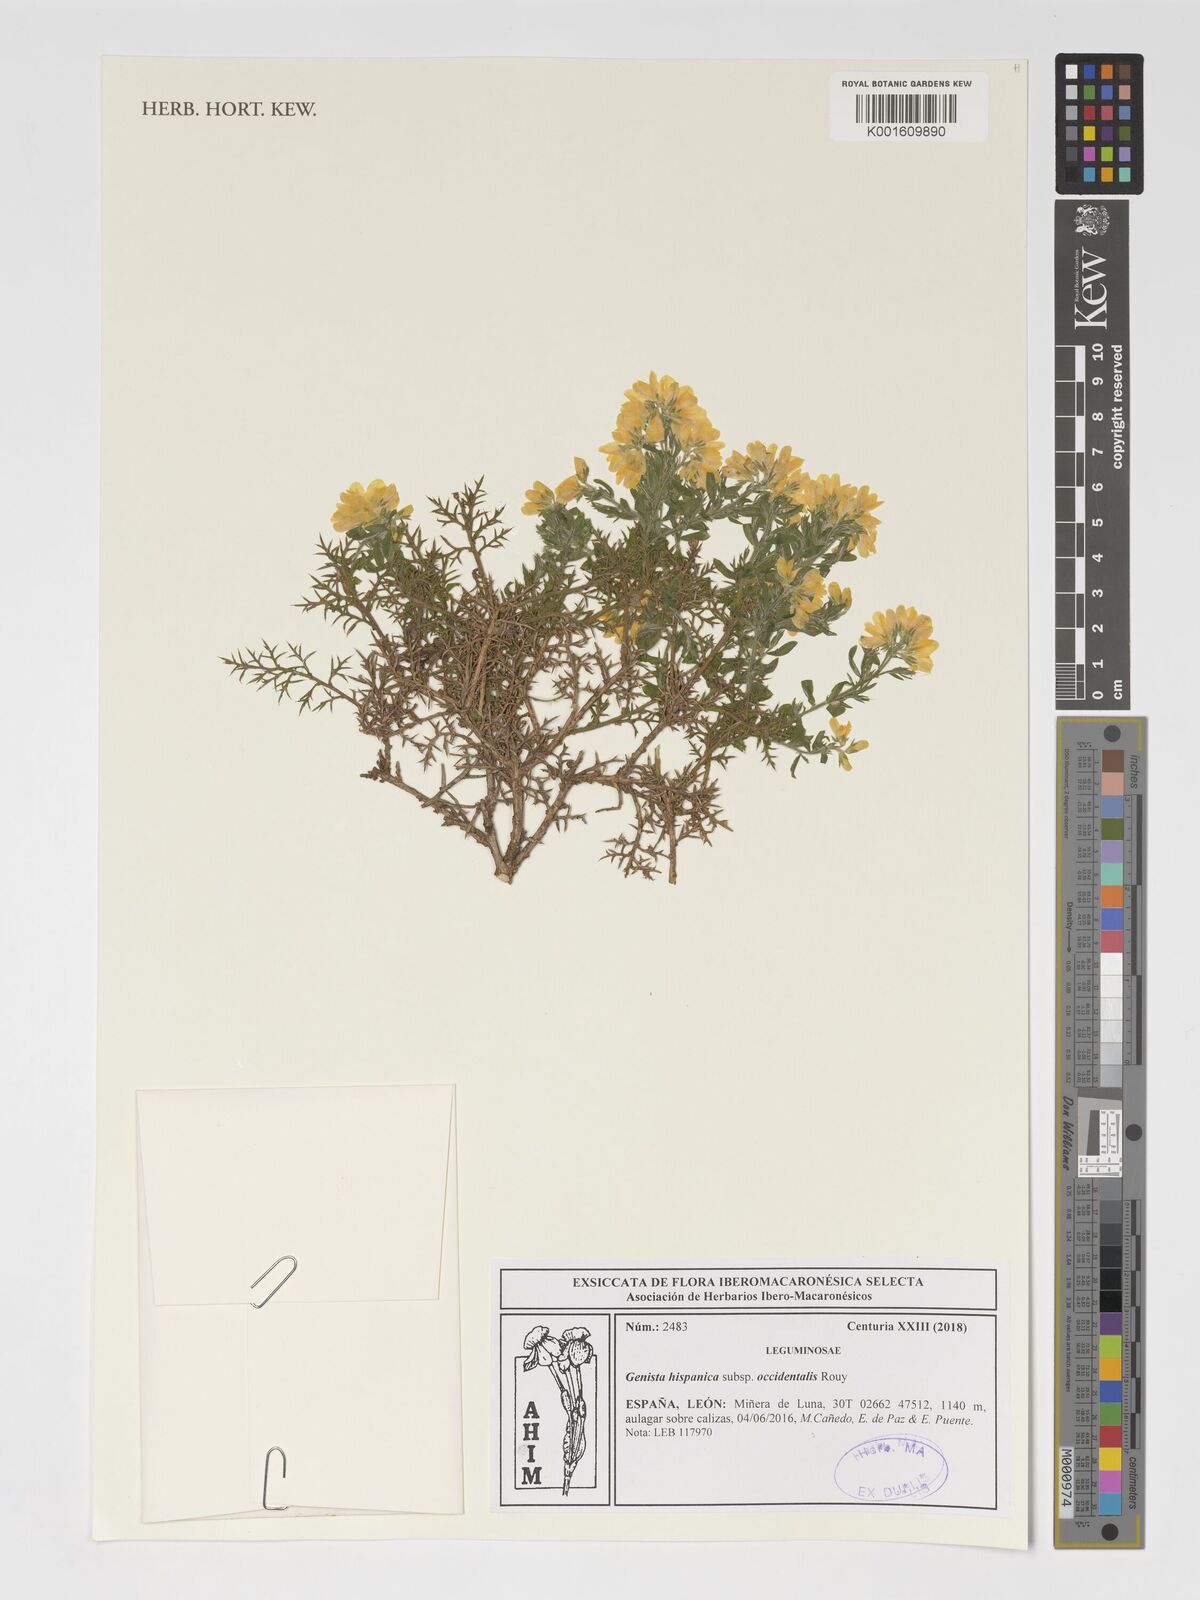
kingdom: Plantae
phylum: Tracheophyta
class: Magnoliopsida
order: Fabales
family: Fabaceae
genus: Genista
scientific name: Genista hispanica
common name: Spanish gorse
